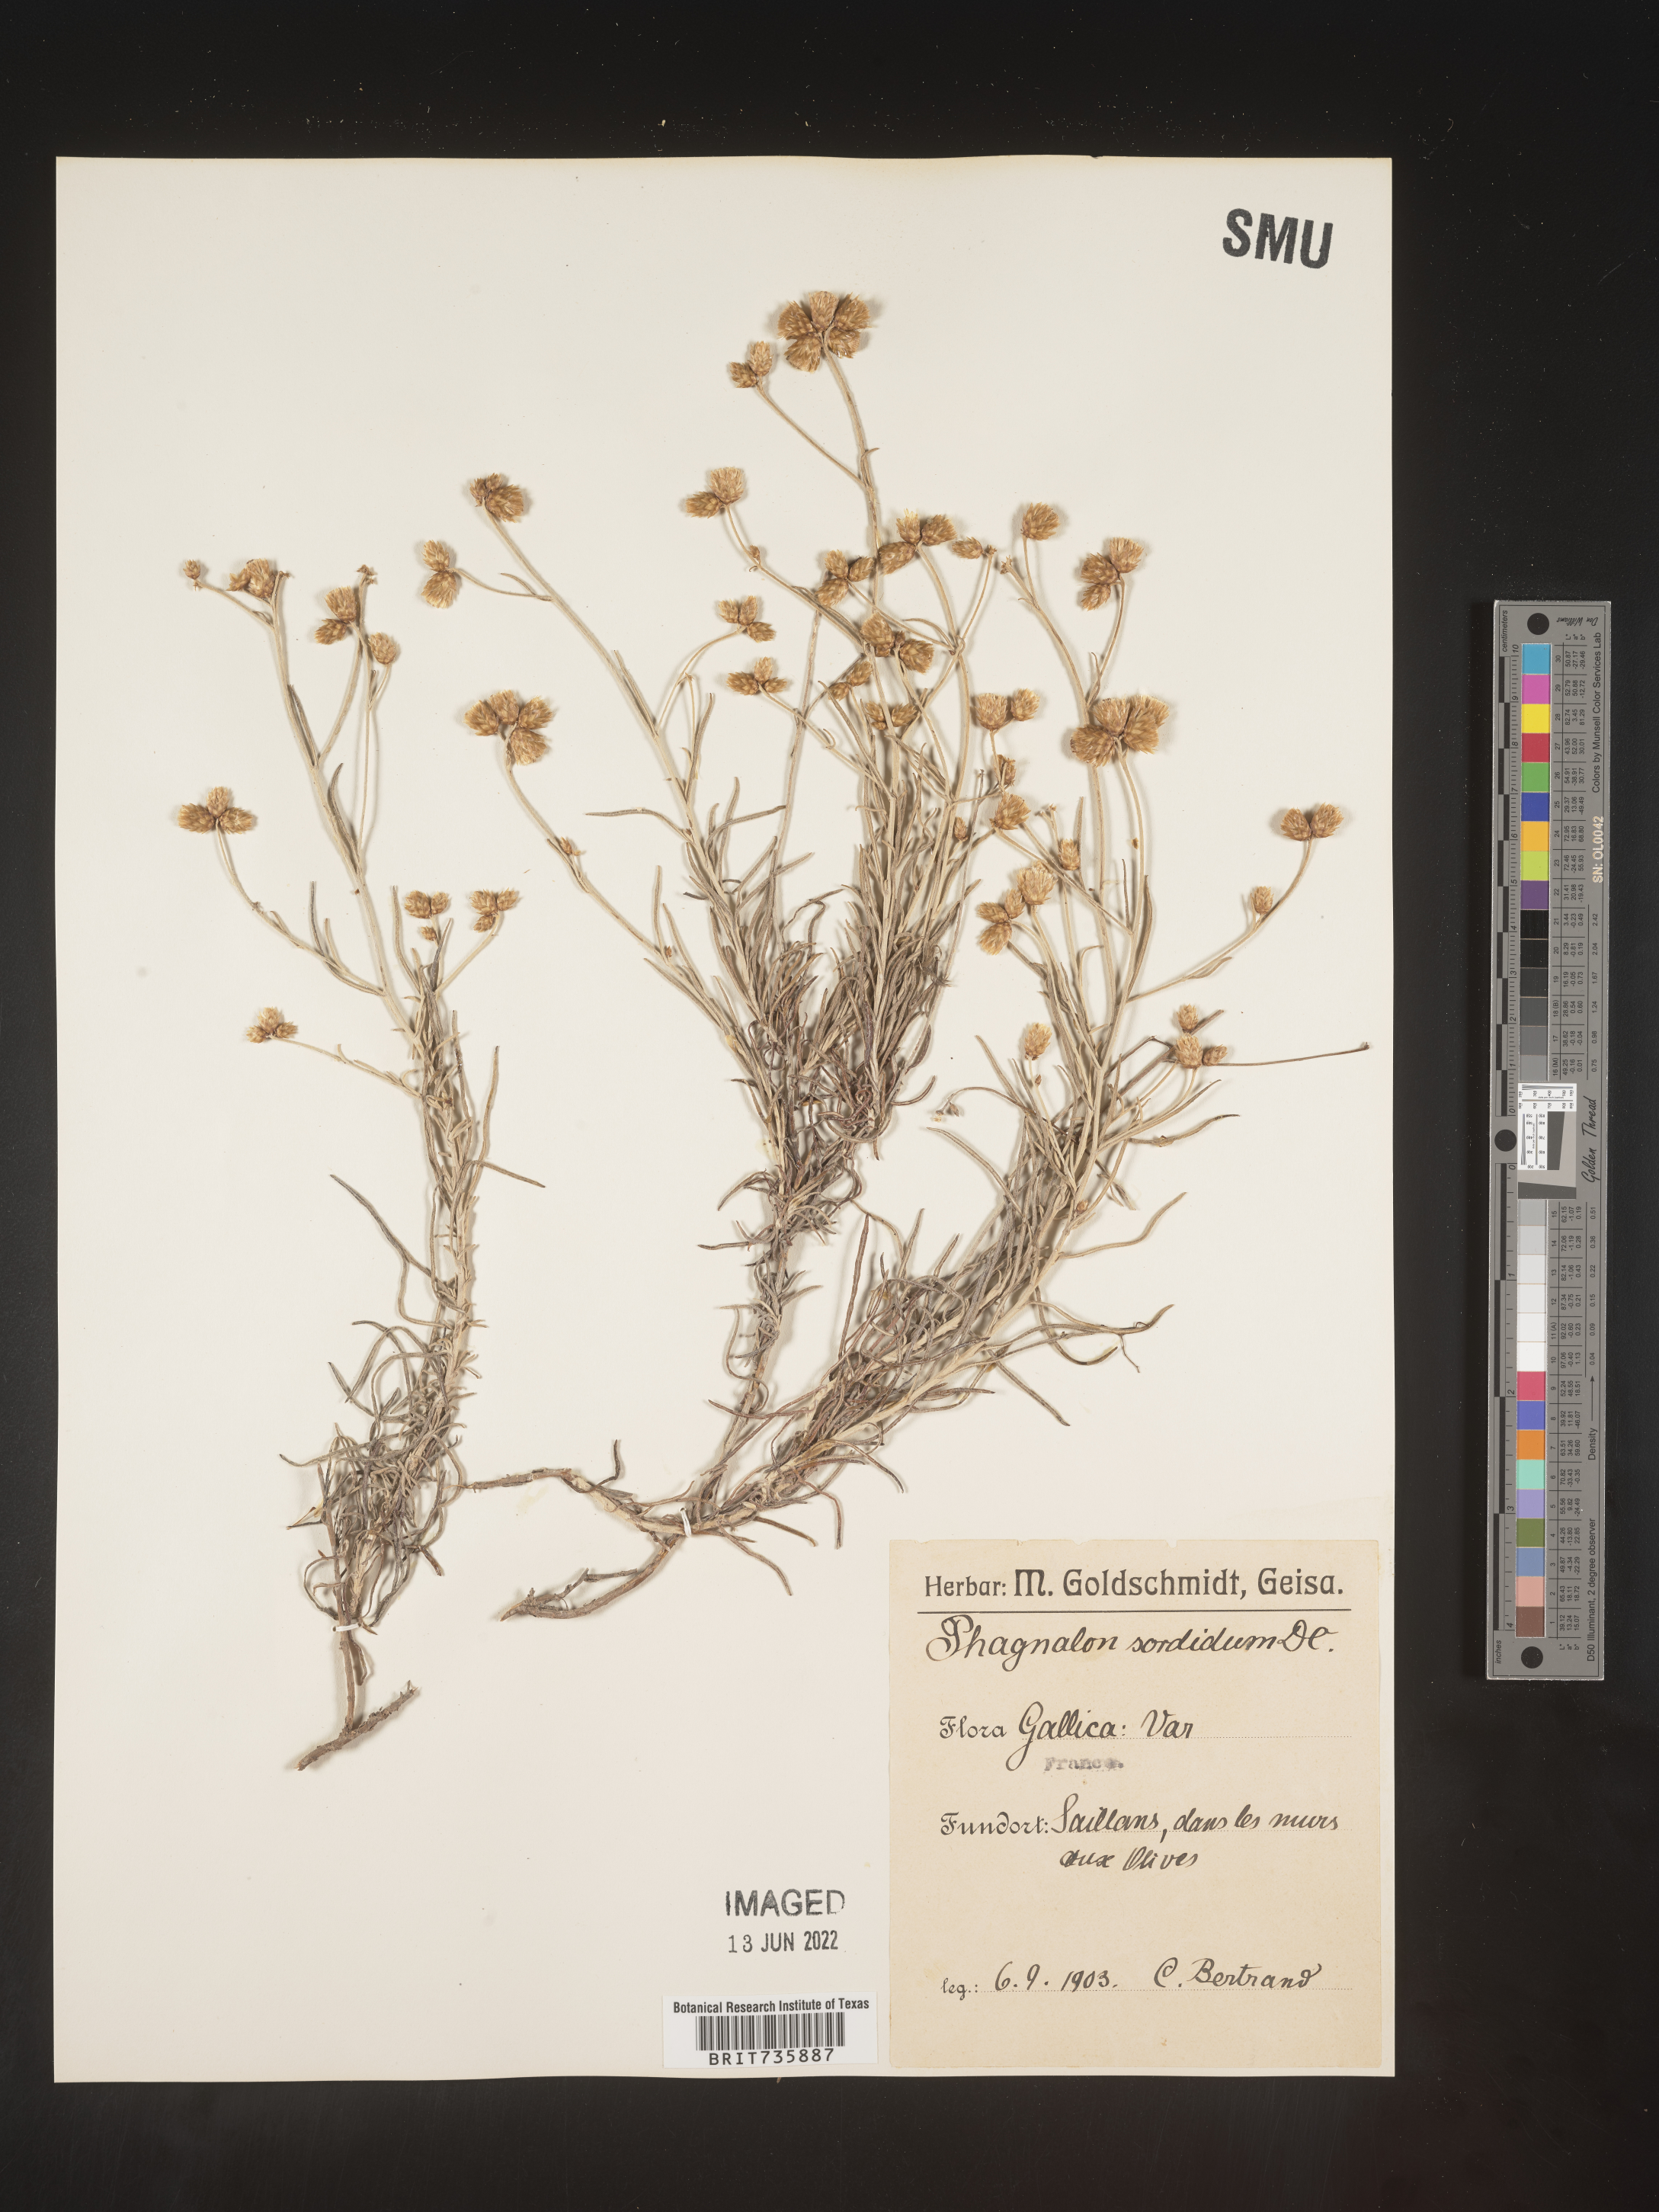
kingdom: Plantae
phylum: Tracheophyta
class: Magnoliopsida
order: Asterales
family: Asteraceae
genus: Phagnalon
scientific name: Phagnalon
